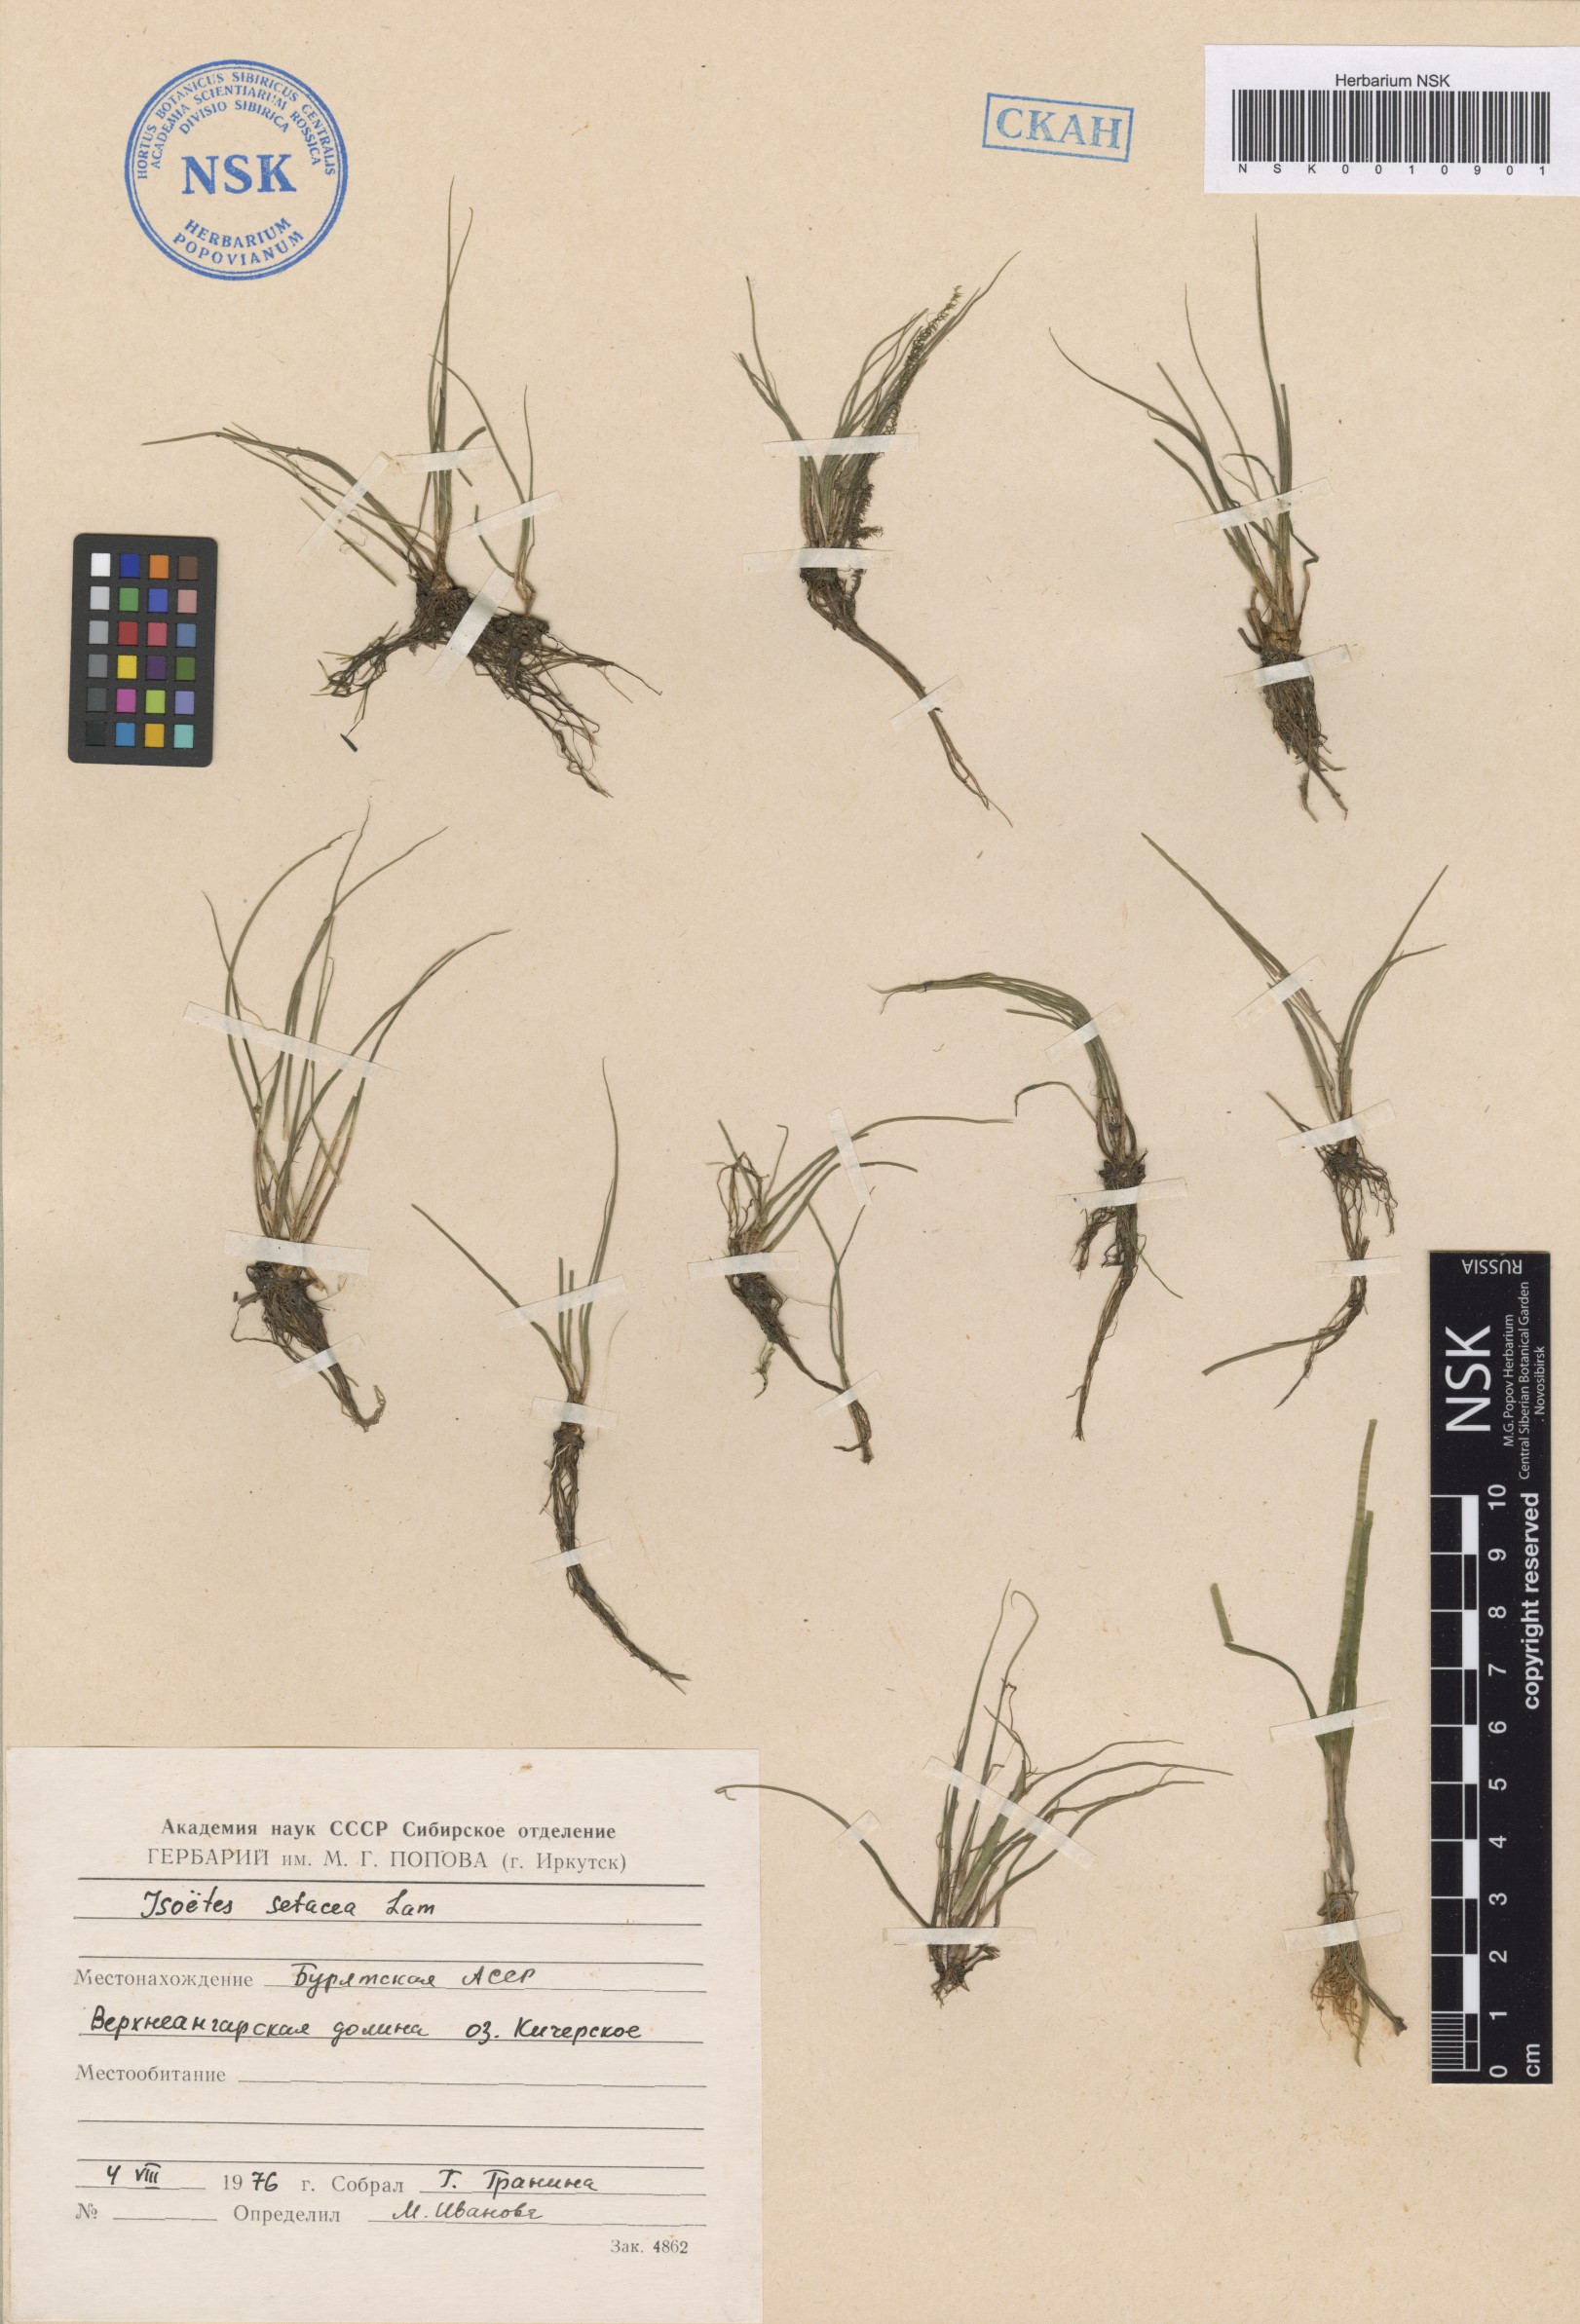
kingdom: Plantae
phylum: Tracheophyta
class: Lycopodiopsida
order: Isoetales
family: Isoetaceae
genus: Isoetes
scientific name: Isoetes lacustris
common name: Common quillwort
